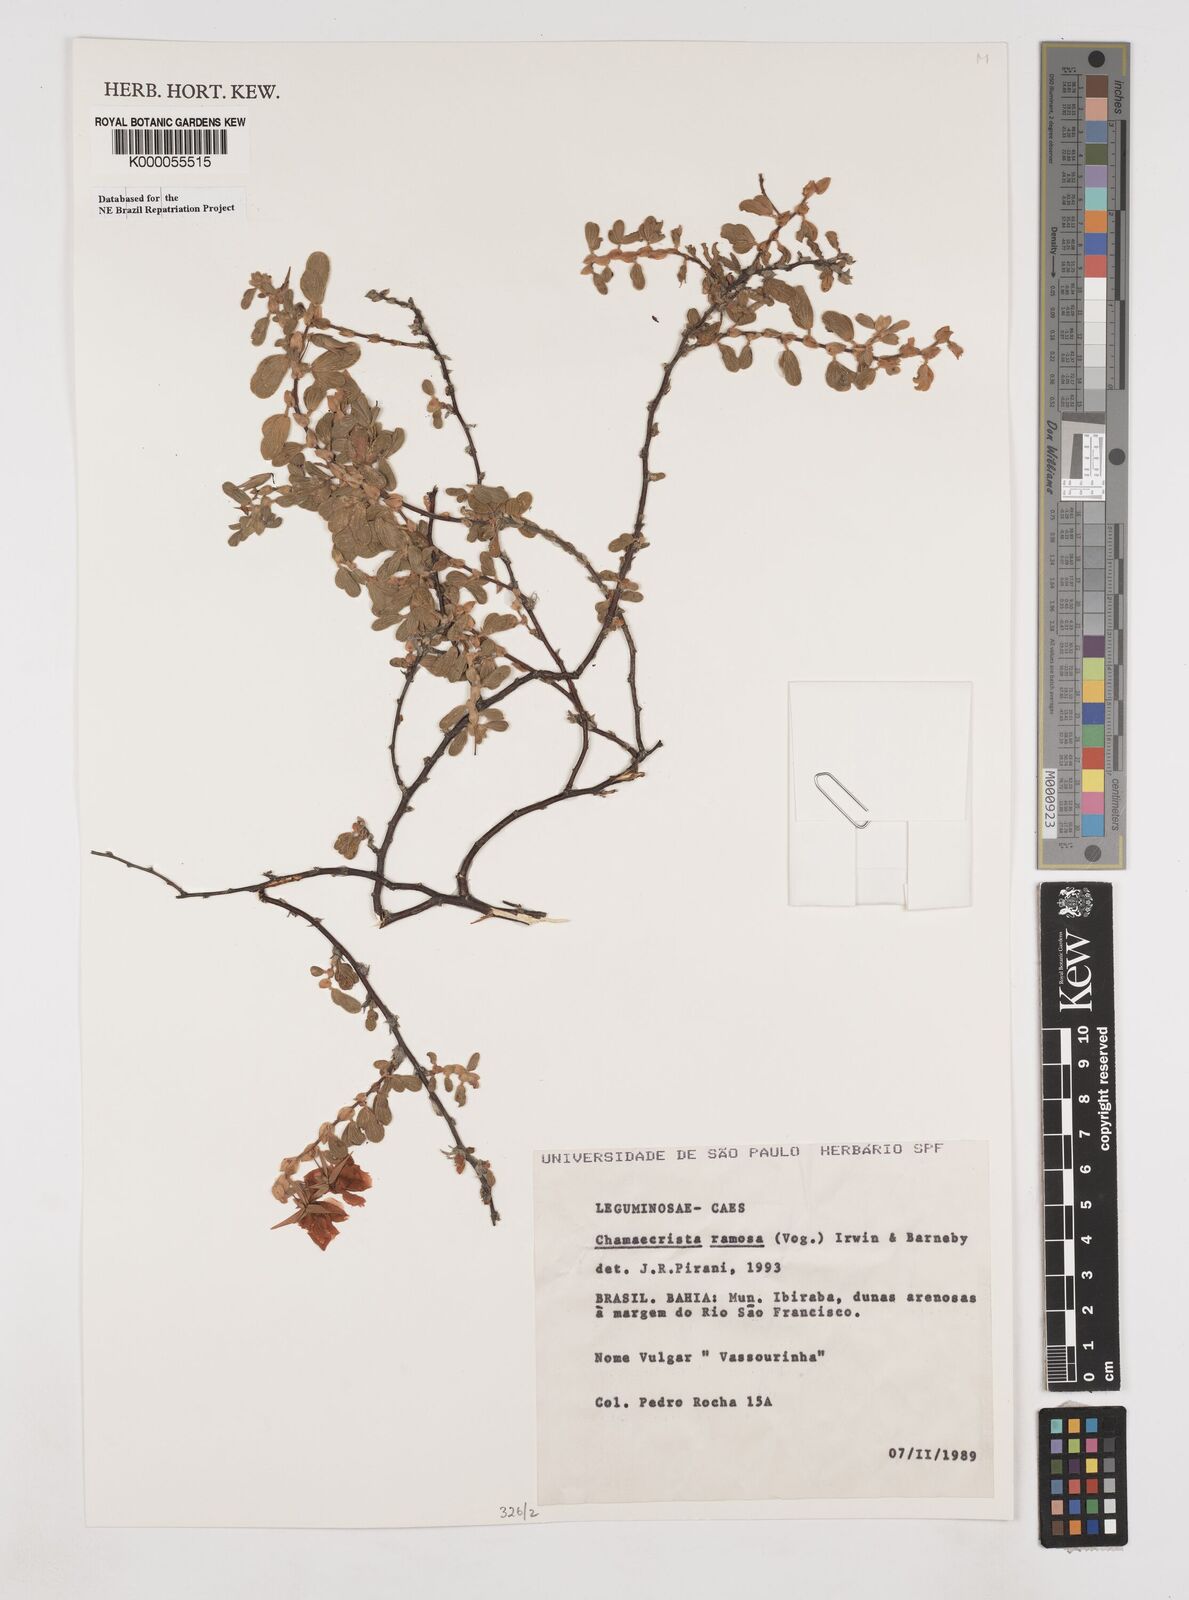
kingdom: Plantae
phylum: Tracheophyta
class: Magnoliopsida
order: Fabales
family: Fabaceae
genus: Chamaecrista
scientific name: Chamaecrista ramosa
